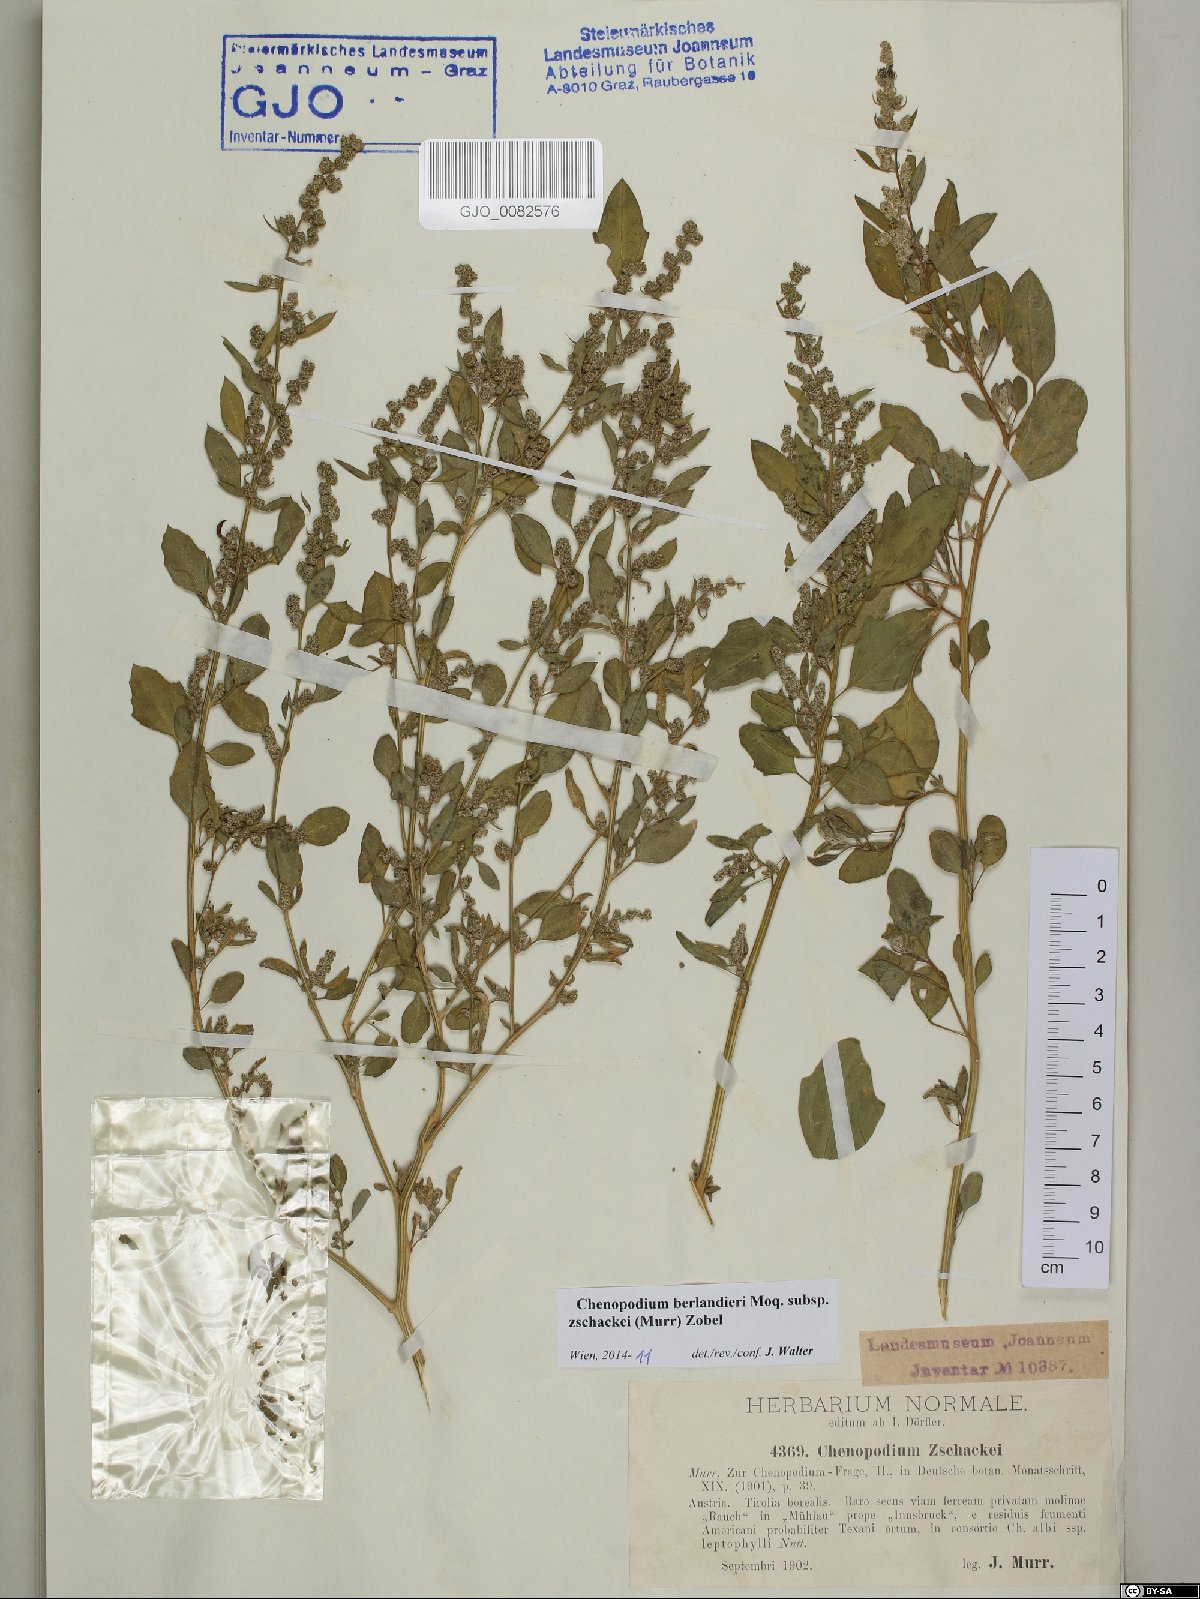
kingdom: Plantae
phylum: Tracheophyta
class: Magnoliopsida
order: Caryophyllales
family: Amaranthaceae
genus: Chenopodium
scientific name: Chenopodium berlandieri
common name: Pit-seed goosefoot
